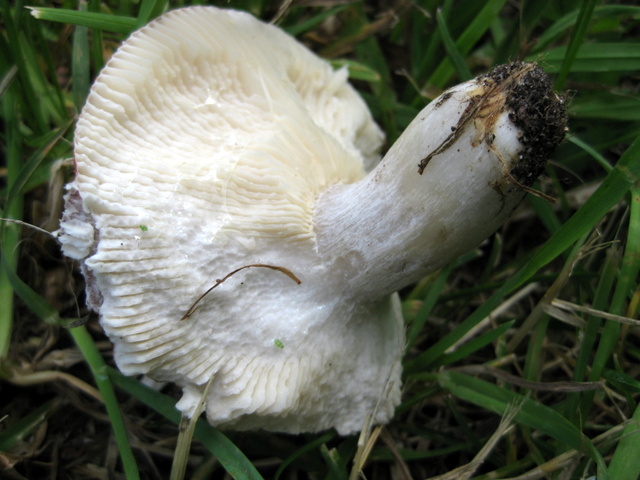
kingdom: Fungi
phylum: Basidiomycota
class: Agaricomycetes
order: Russulales
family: Russulaceae
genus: Russula
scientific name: Russula depallens
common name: falmende skørhat
